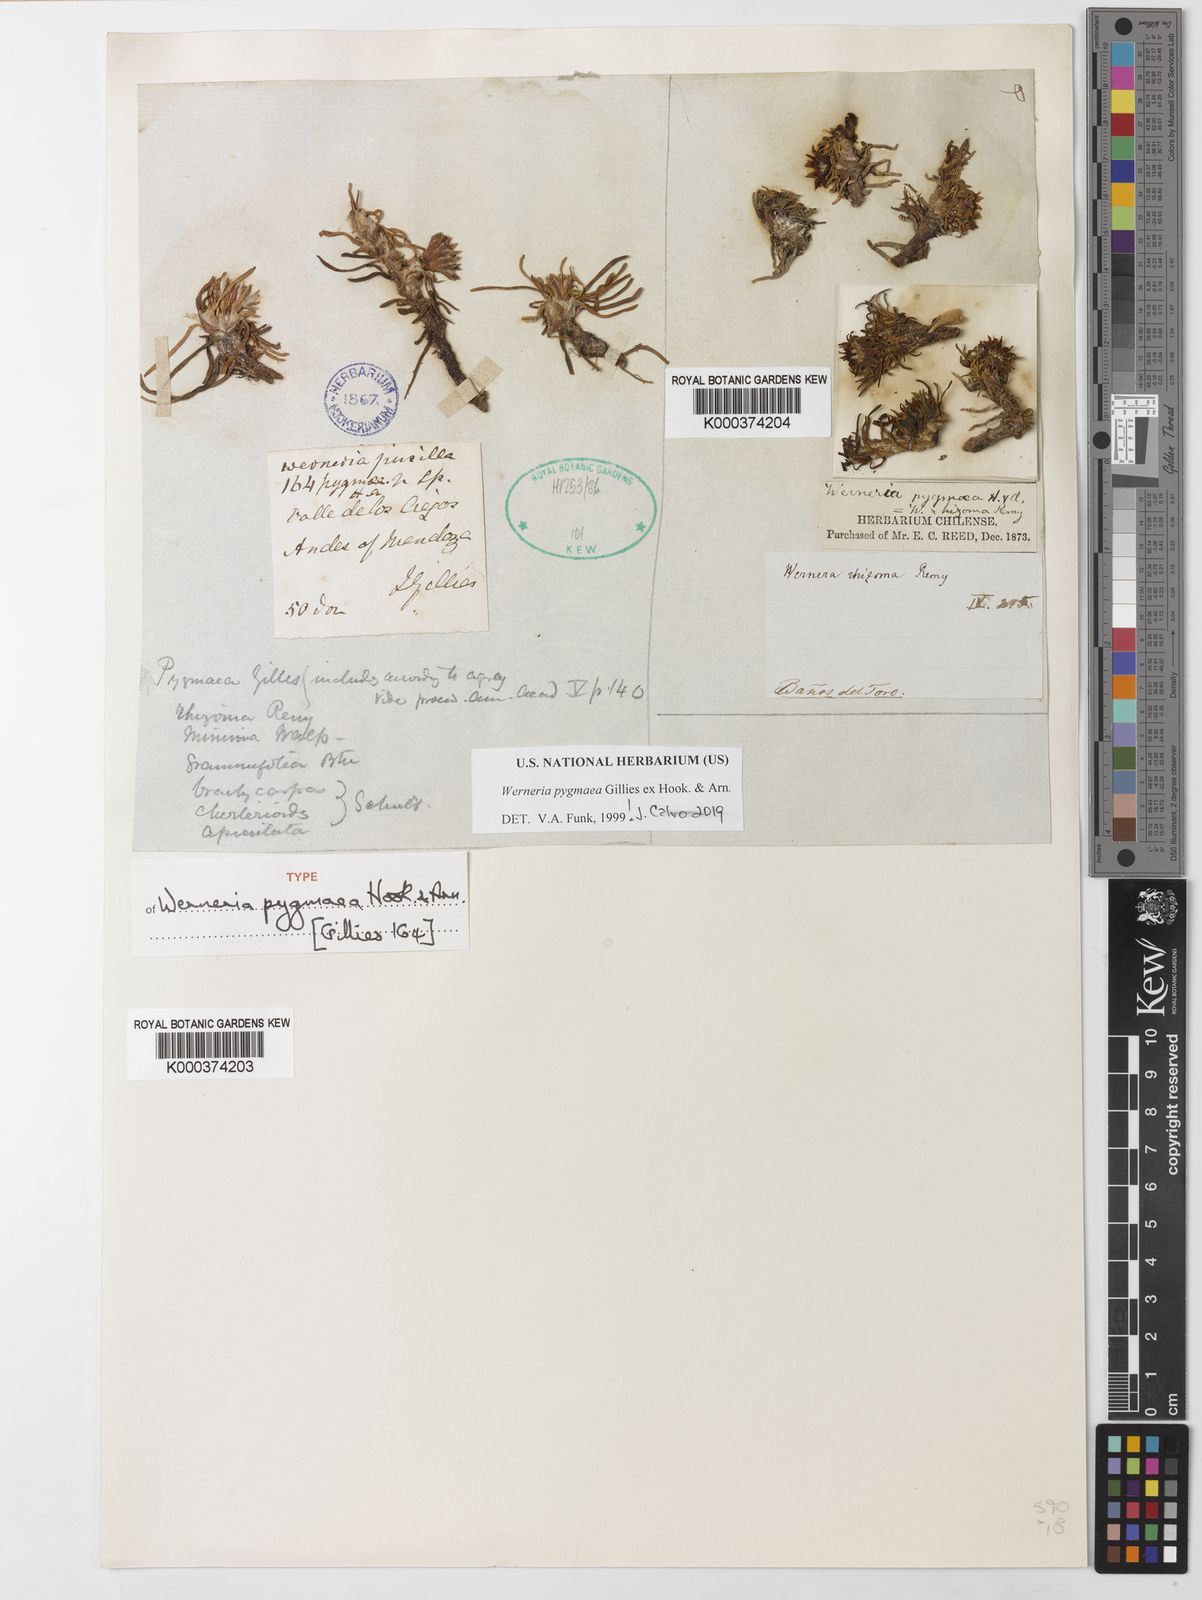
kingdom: Plantae
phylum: Tracheophyta
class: Magnoliopsida
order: Asterales
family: Asteraceae
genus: Rockhausenia
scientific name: Rockhausenia pygmaea
